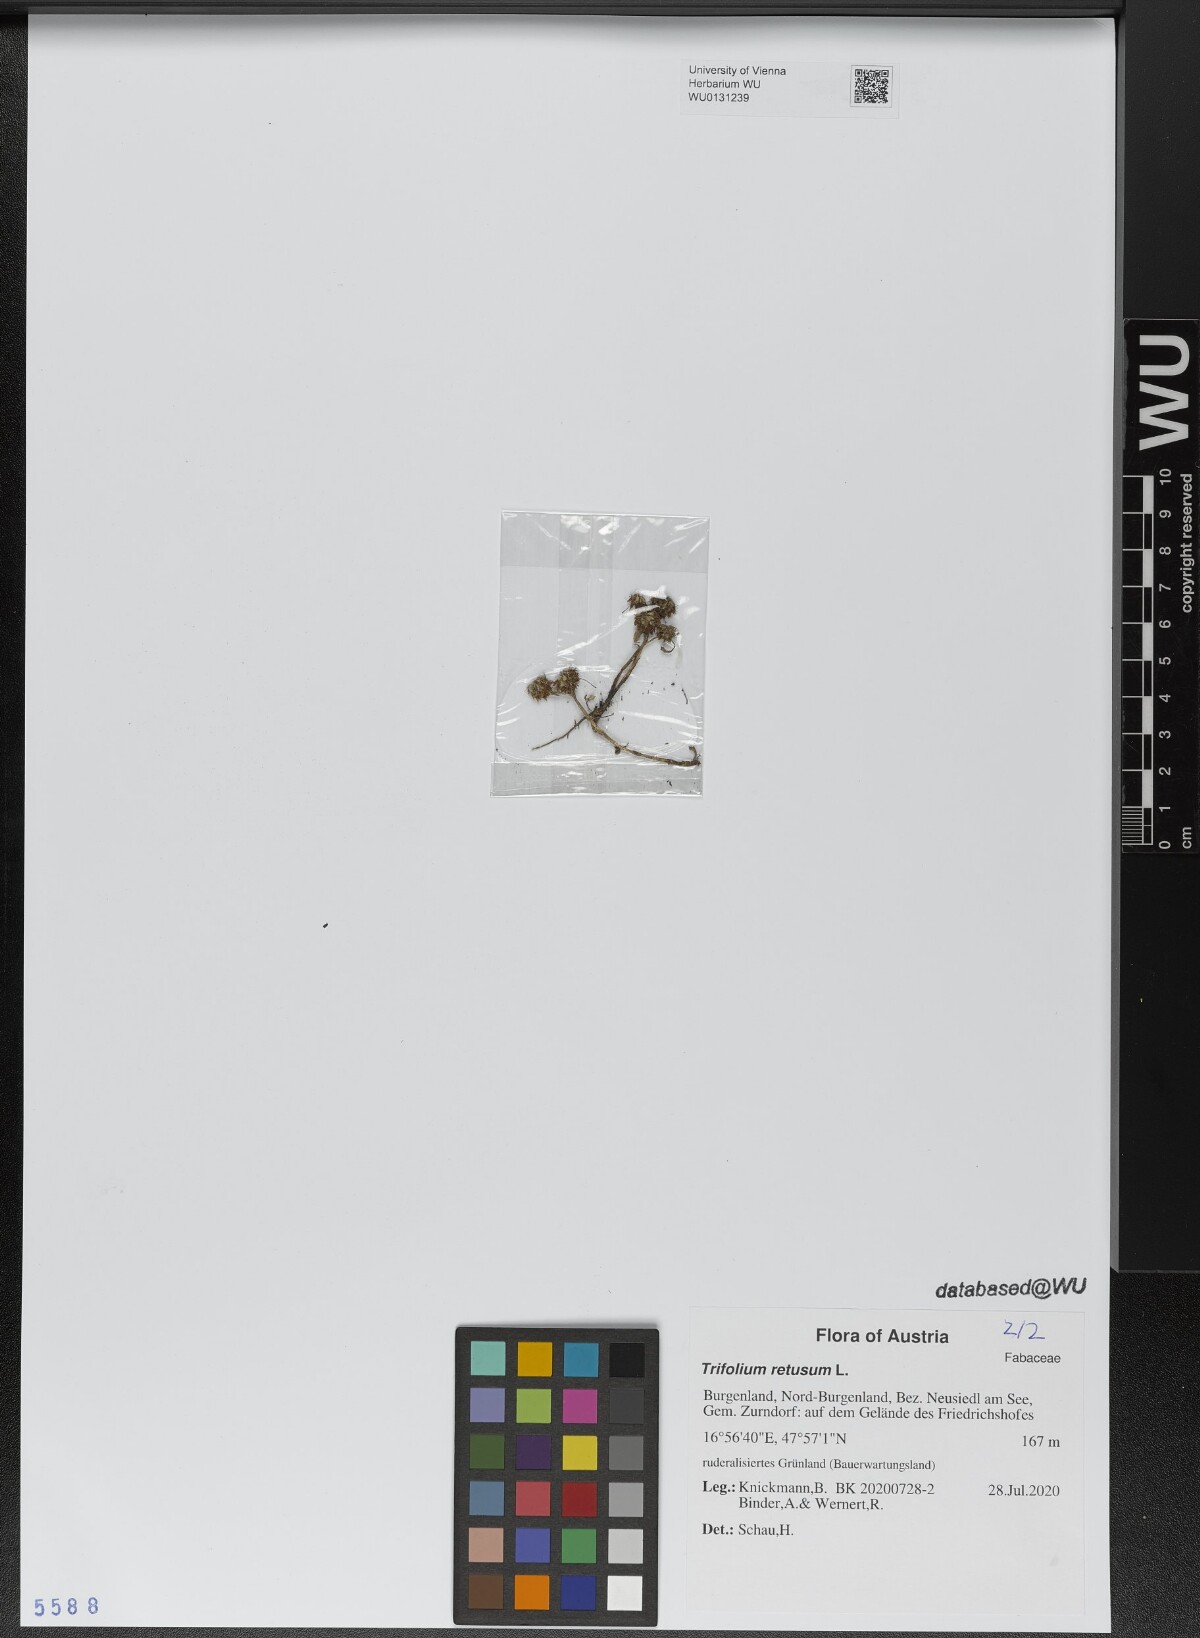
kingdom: Plantae
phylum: Tracheophyta
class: Magnoliopsida
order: Fabales
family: Fabaceae
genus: Trifolium
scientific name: Trifolium striatum
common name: Knotted clover
